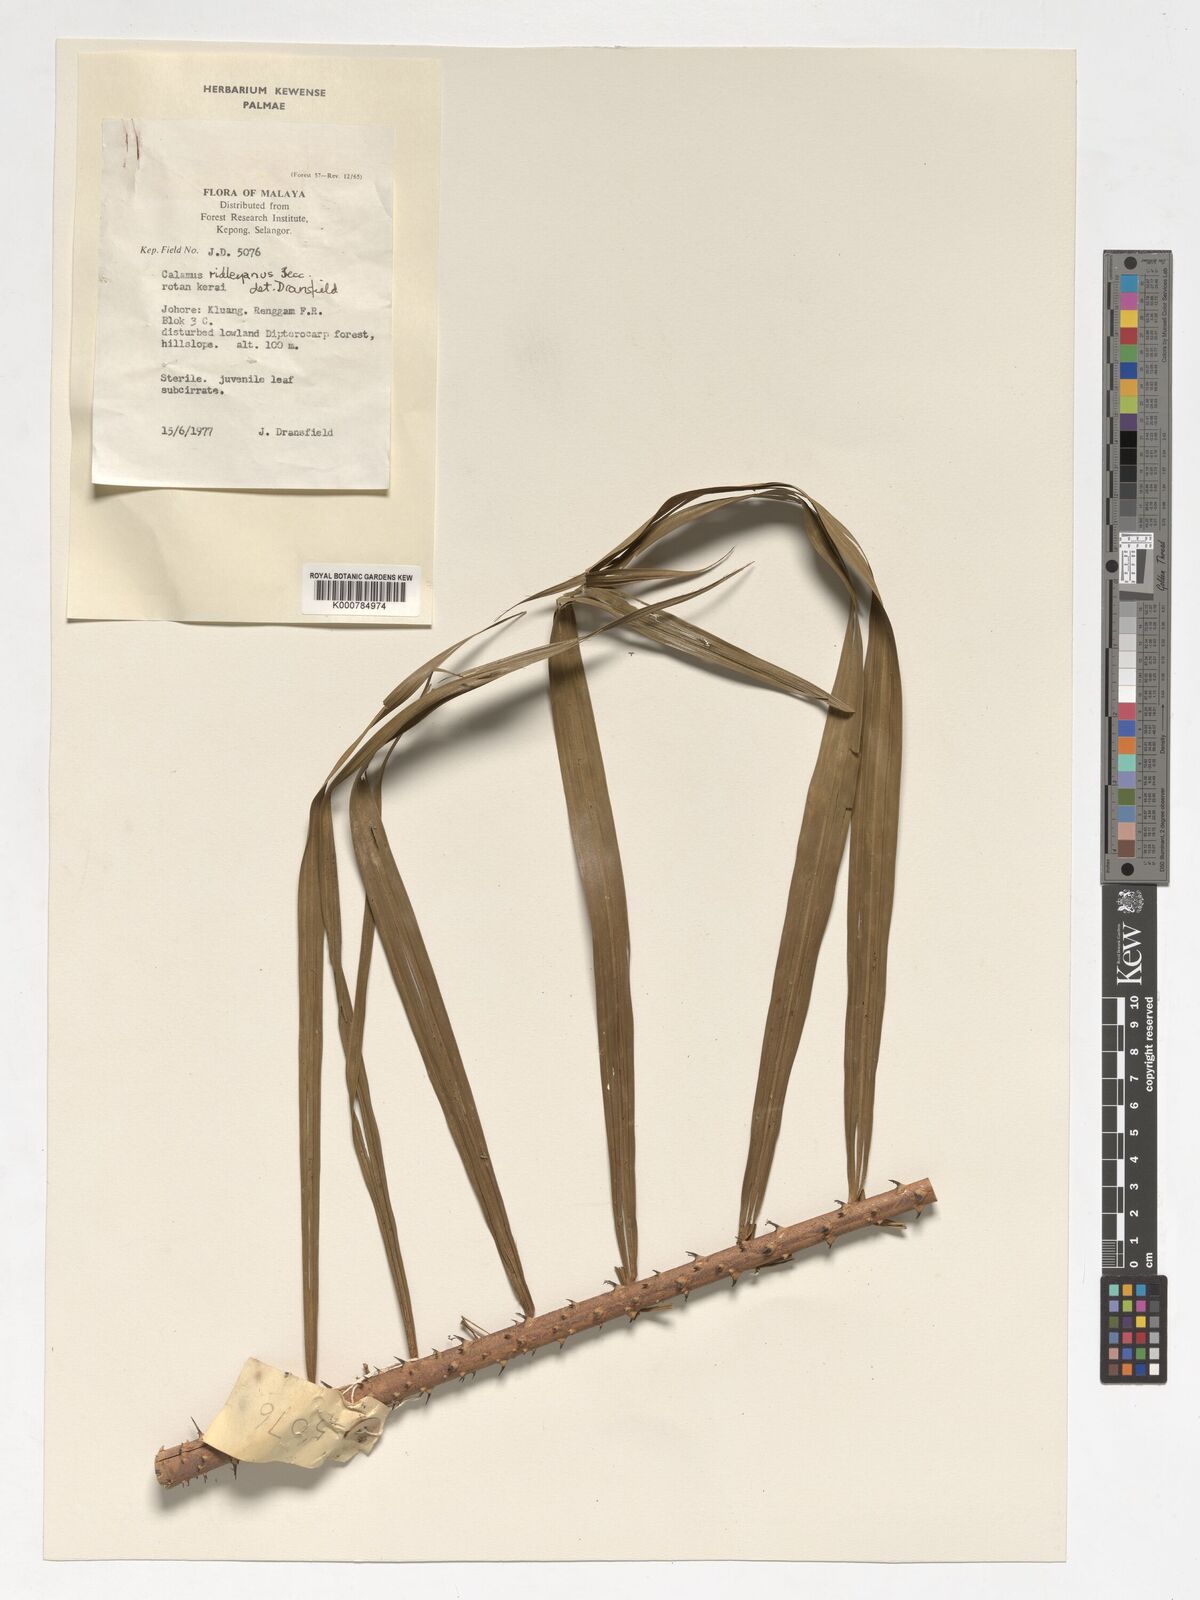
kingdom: Plantae
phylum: Tracheophyta
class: Liliopsida
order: Arecales
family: Arecaceae
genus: Calamus
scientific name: Calamus ridleyanus
